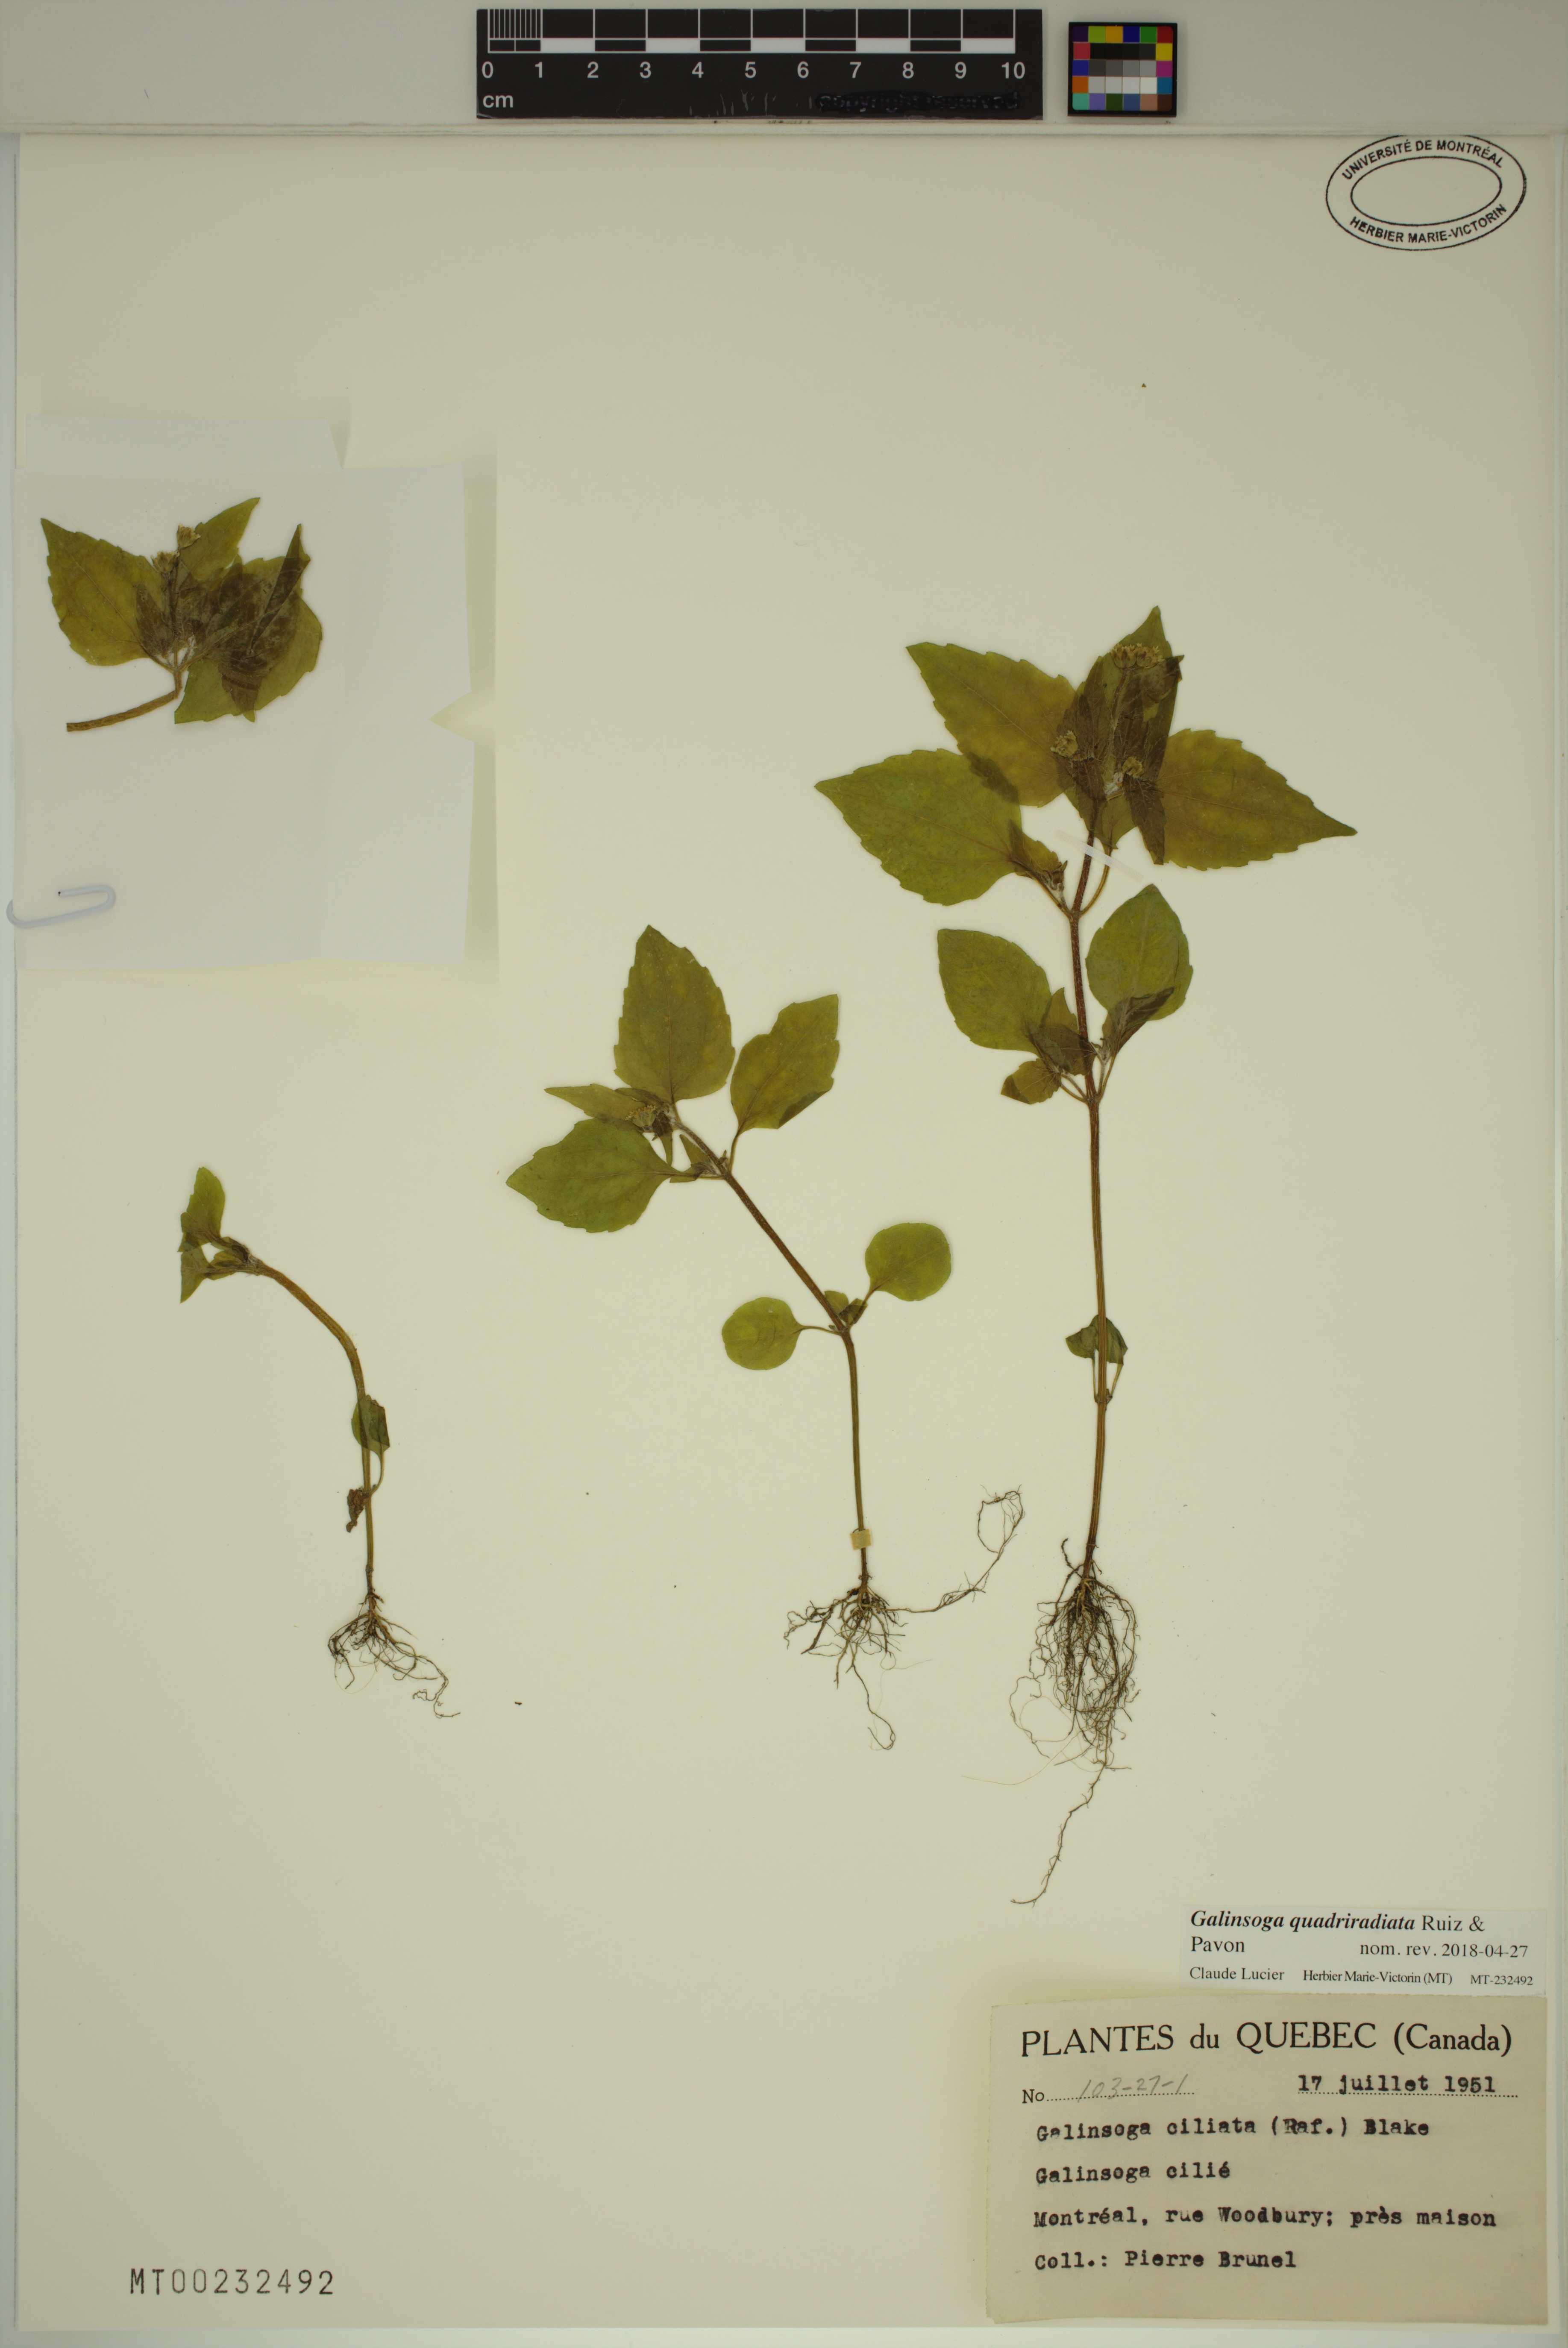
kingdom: Plantae
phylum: Tracheophyta
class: Magnoliopsida
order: Asterales
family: Asteraceae
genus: Galinsoga
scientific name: Galinsoga quadriradiata
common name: Shaggy soldier
